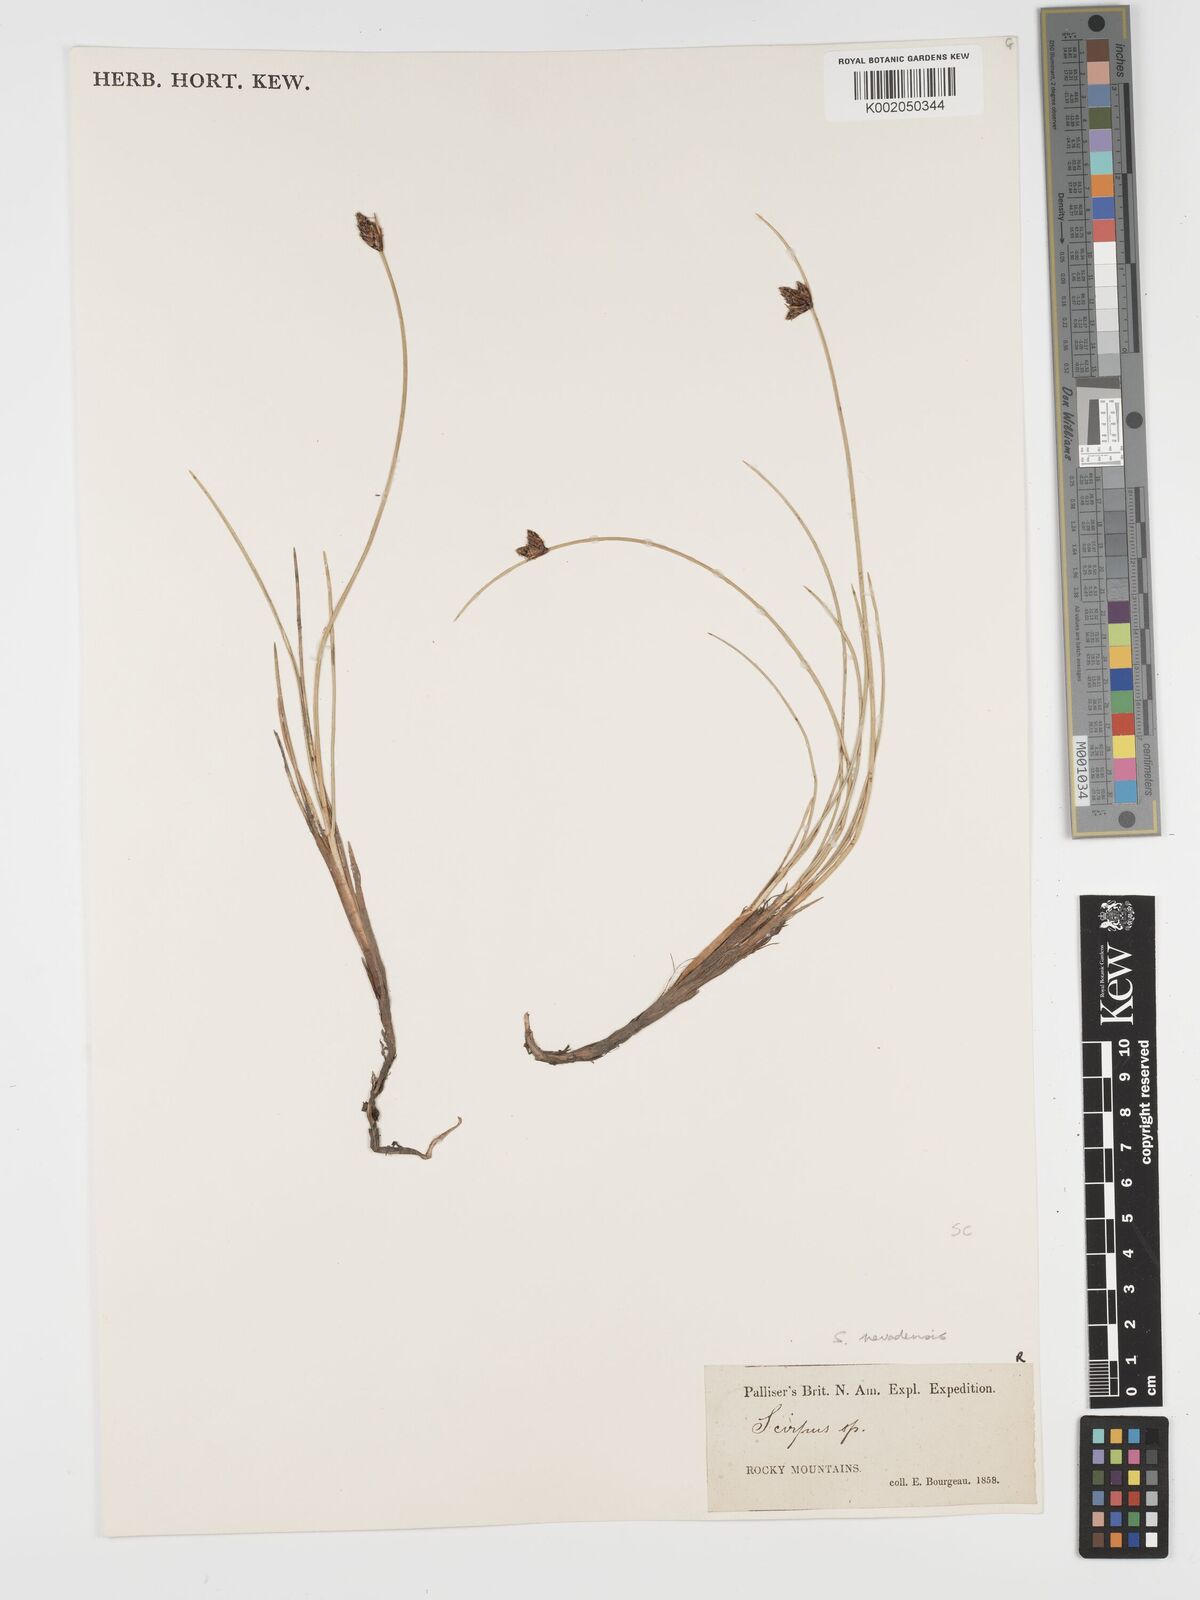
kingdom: Plantae
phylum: Tracheophyta
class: Liliopsida
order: Poales
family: Cyperaceae
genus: Amphiscirpus
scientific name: Amphiscirpus nevadensis
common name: Nevada bulrush
